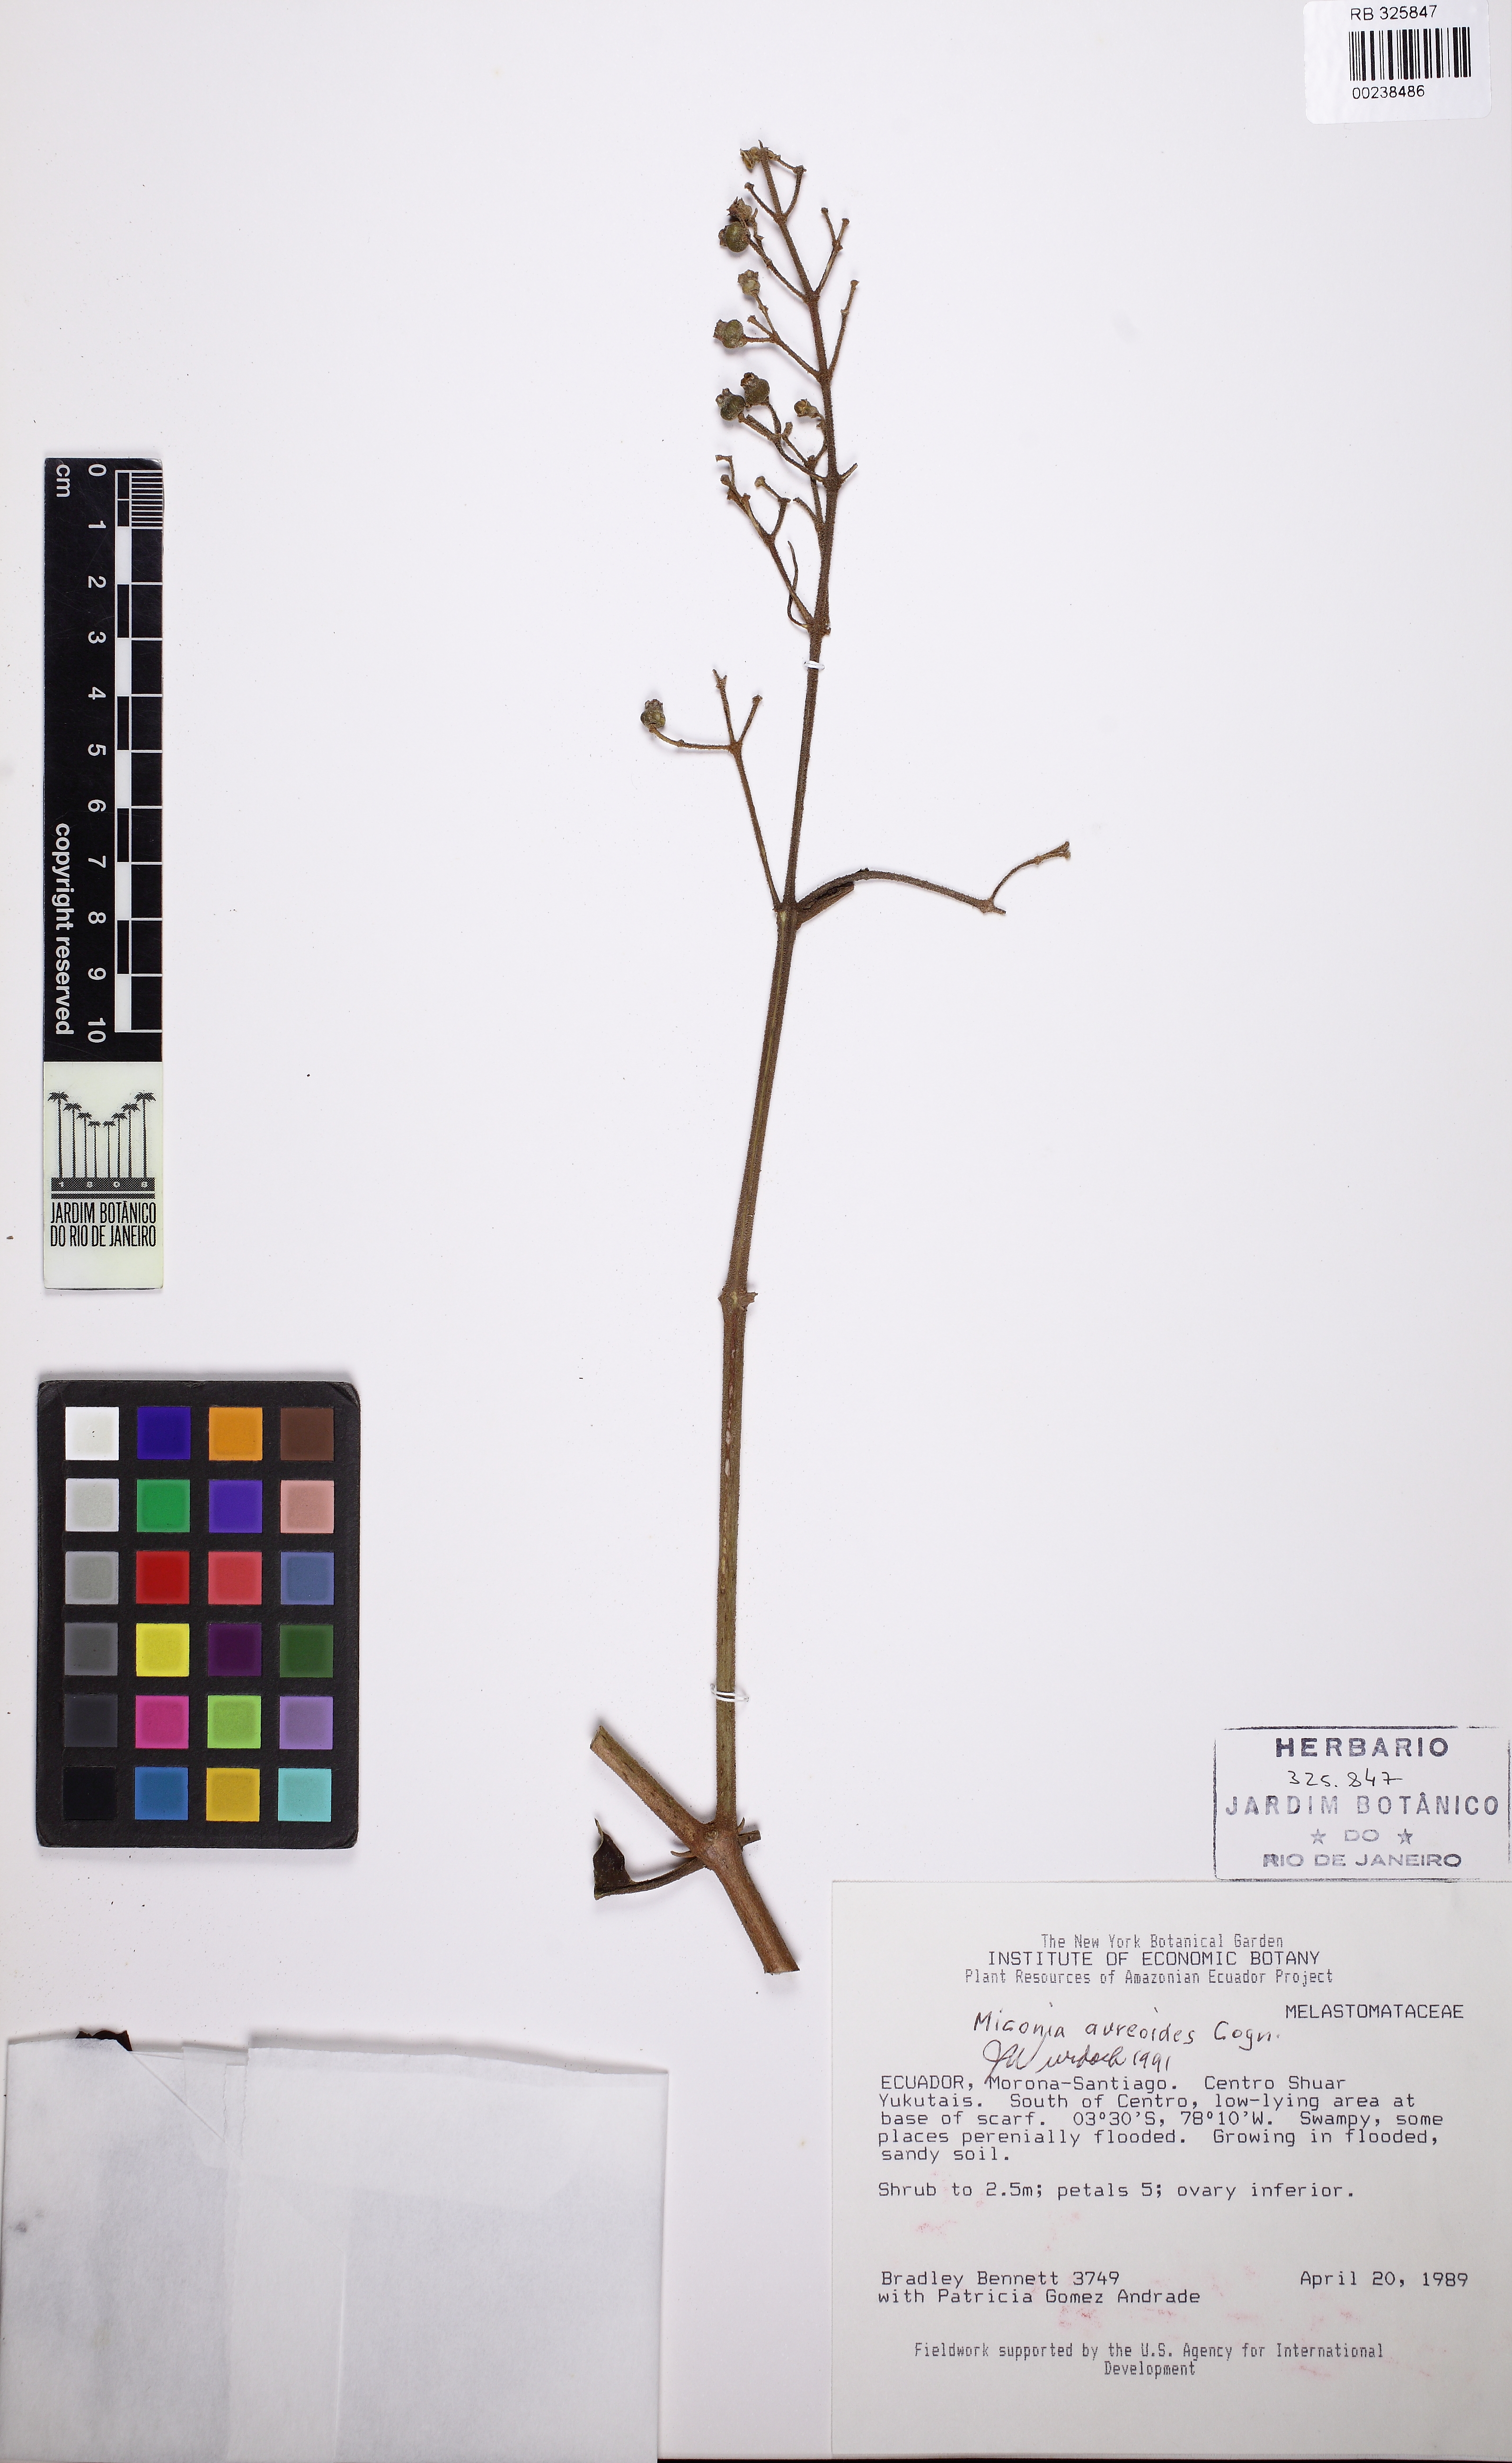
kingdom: Plantae
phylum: Tracheophyta
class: Magnoliopsida
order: Myrtales
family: Melastomataceae
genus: Miconia
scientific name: Miconia aureoides
